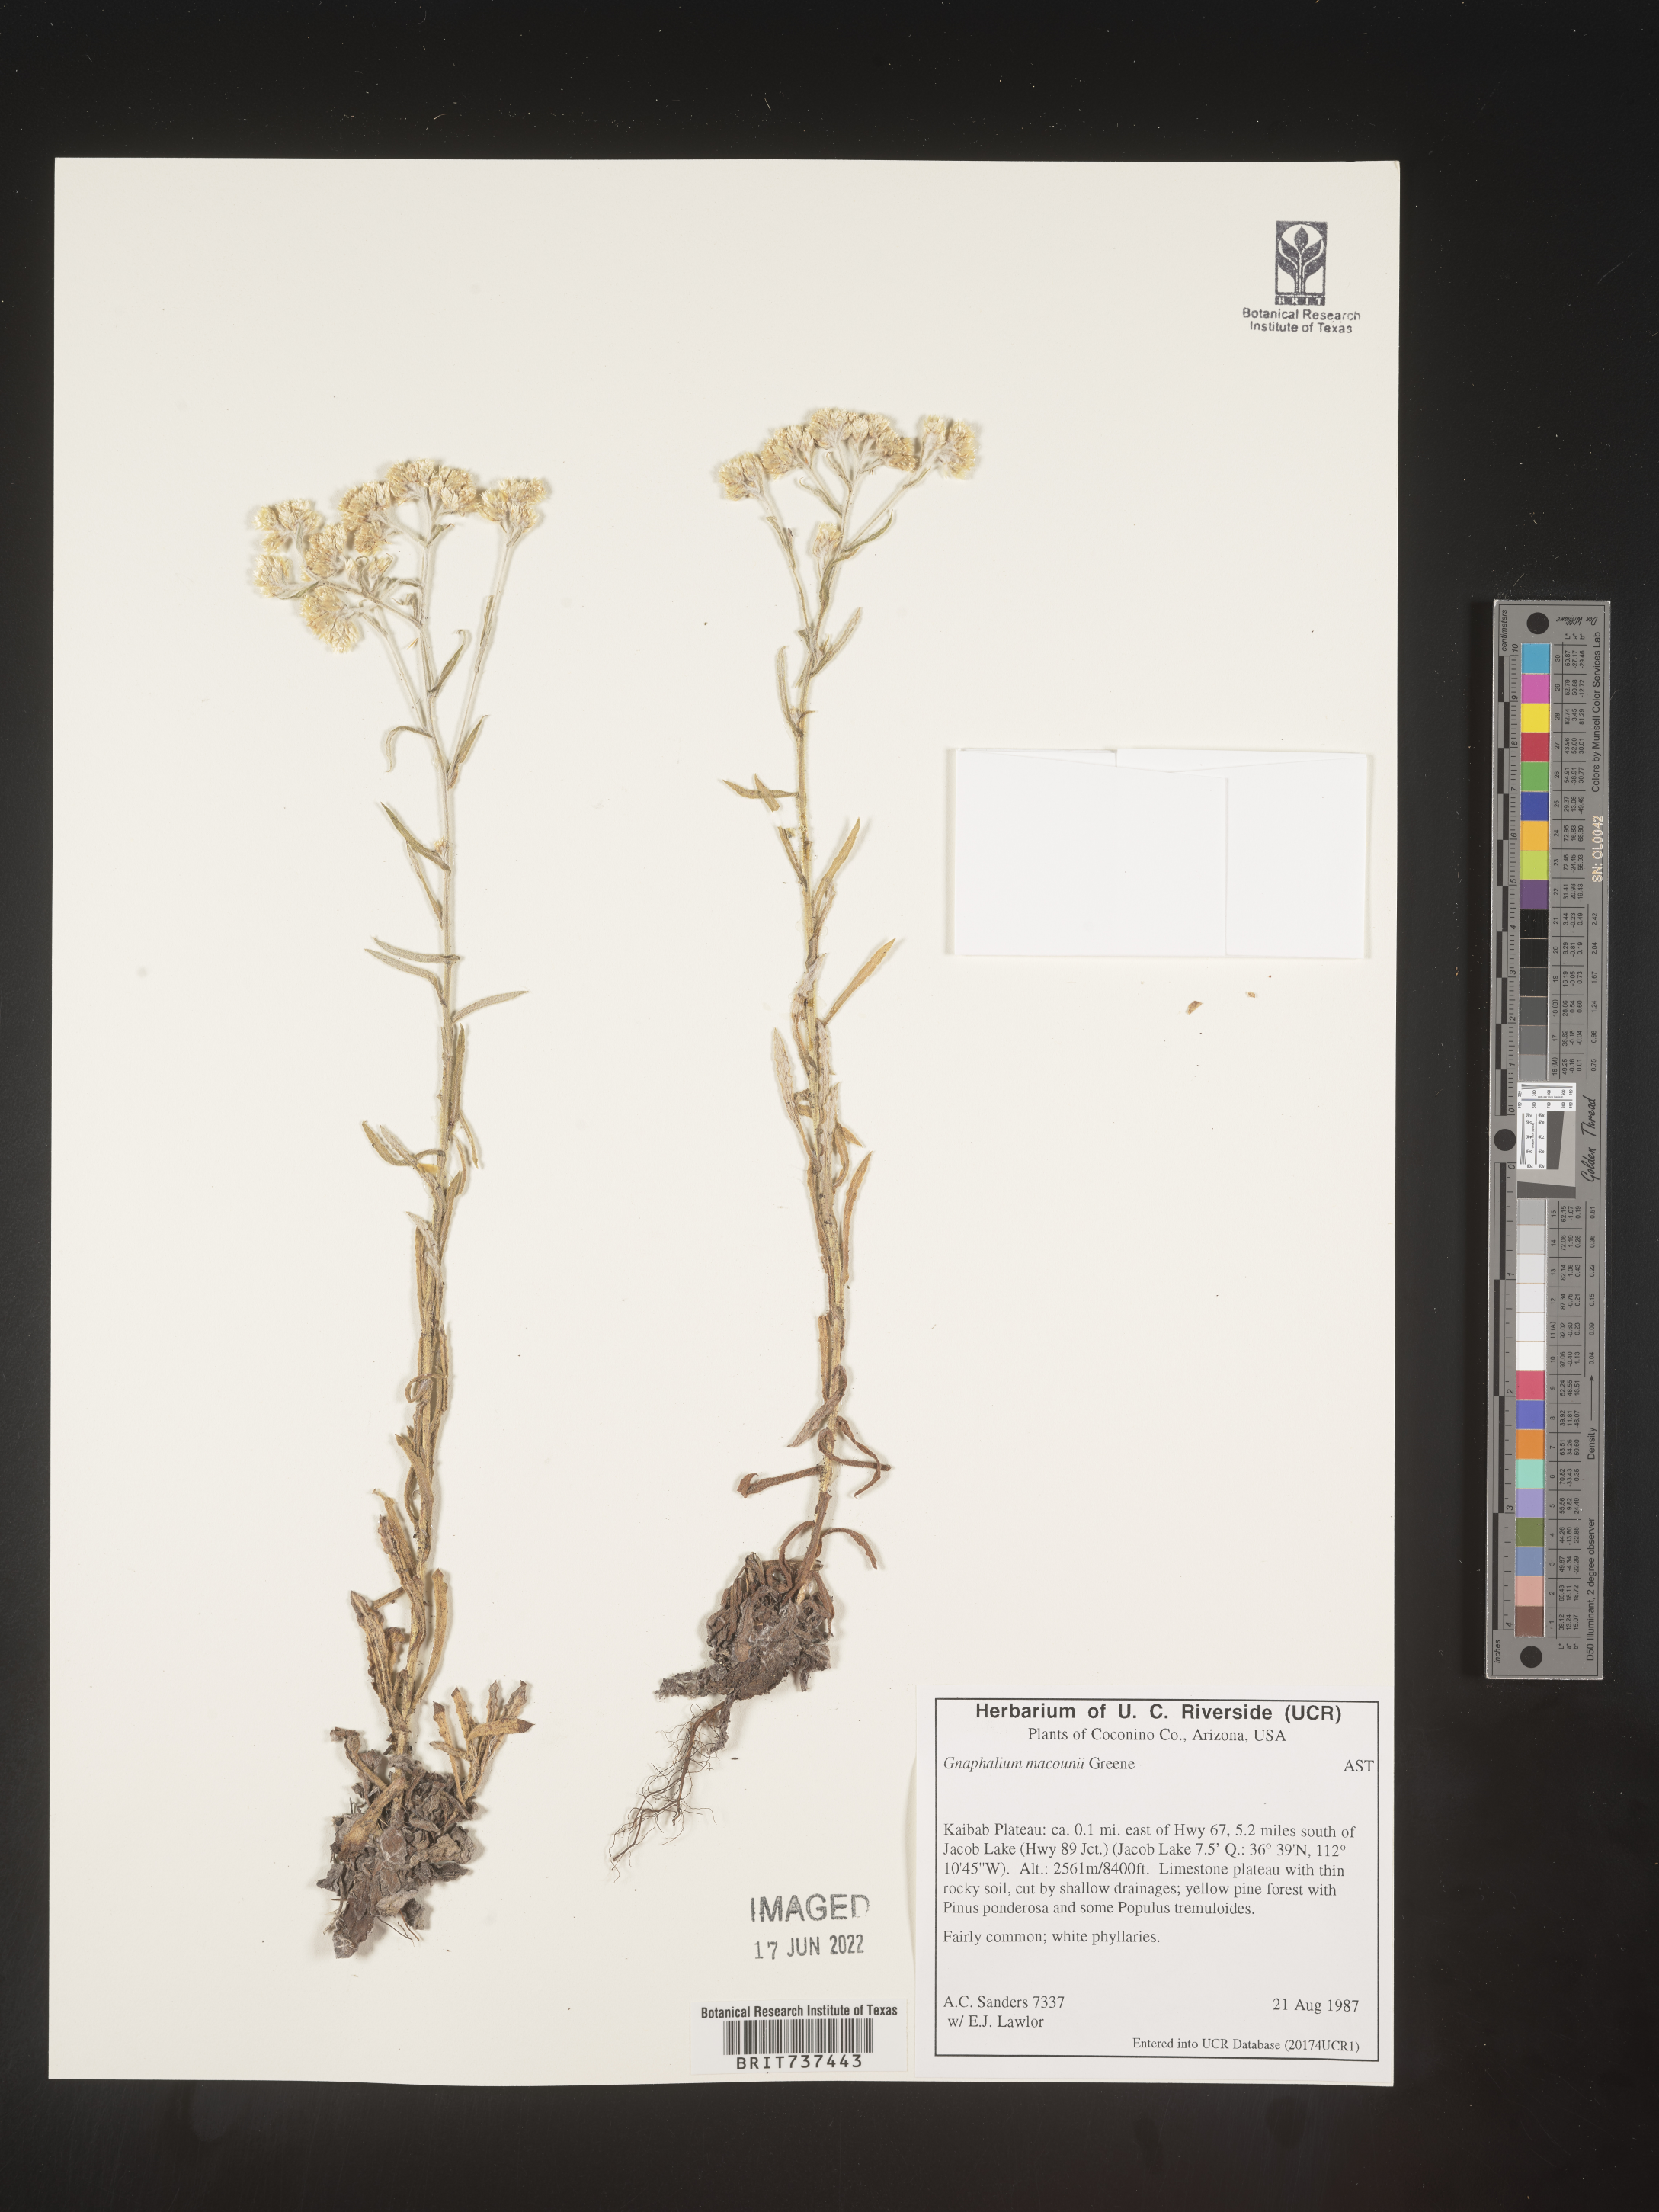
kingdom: Plantae
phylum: Tracheophyta
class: Magnoliopsida
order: Asterales
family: Asteraceae
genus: Pseudognaphalium
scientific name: Pseudognaphalium macounii
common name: Clammy cudweed
